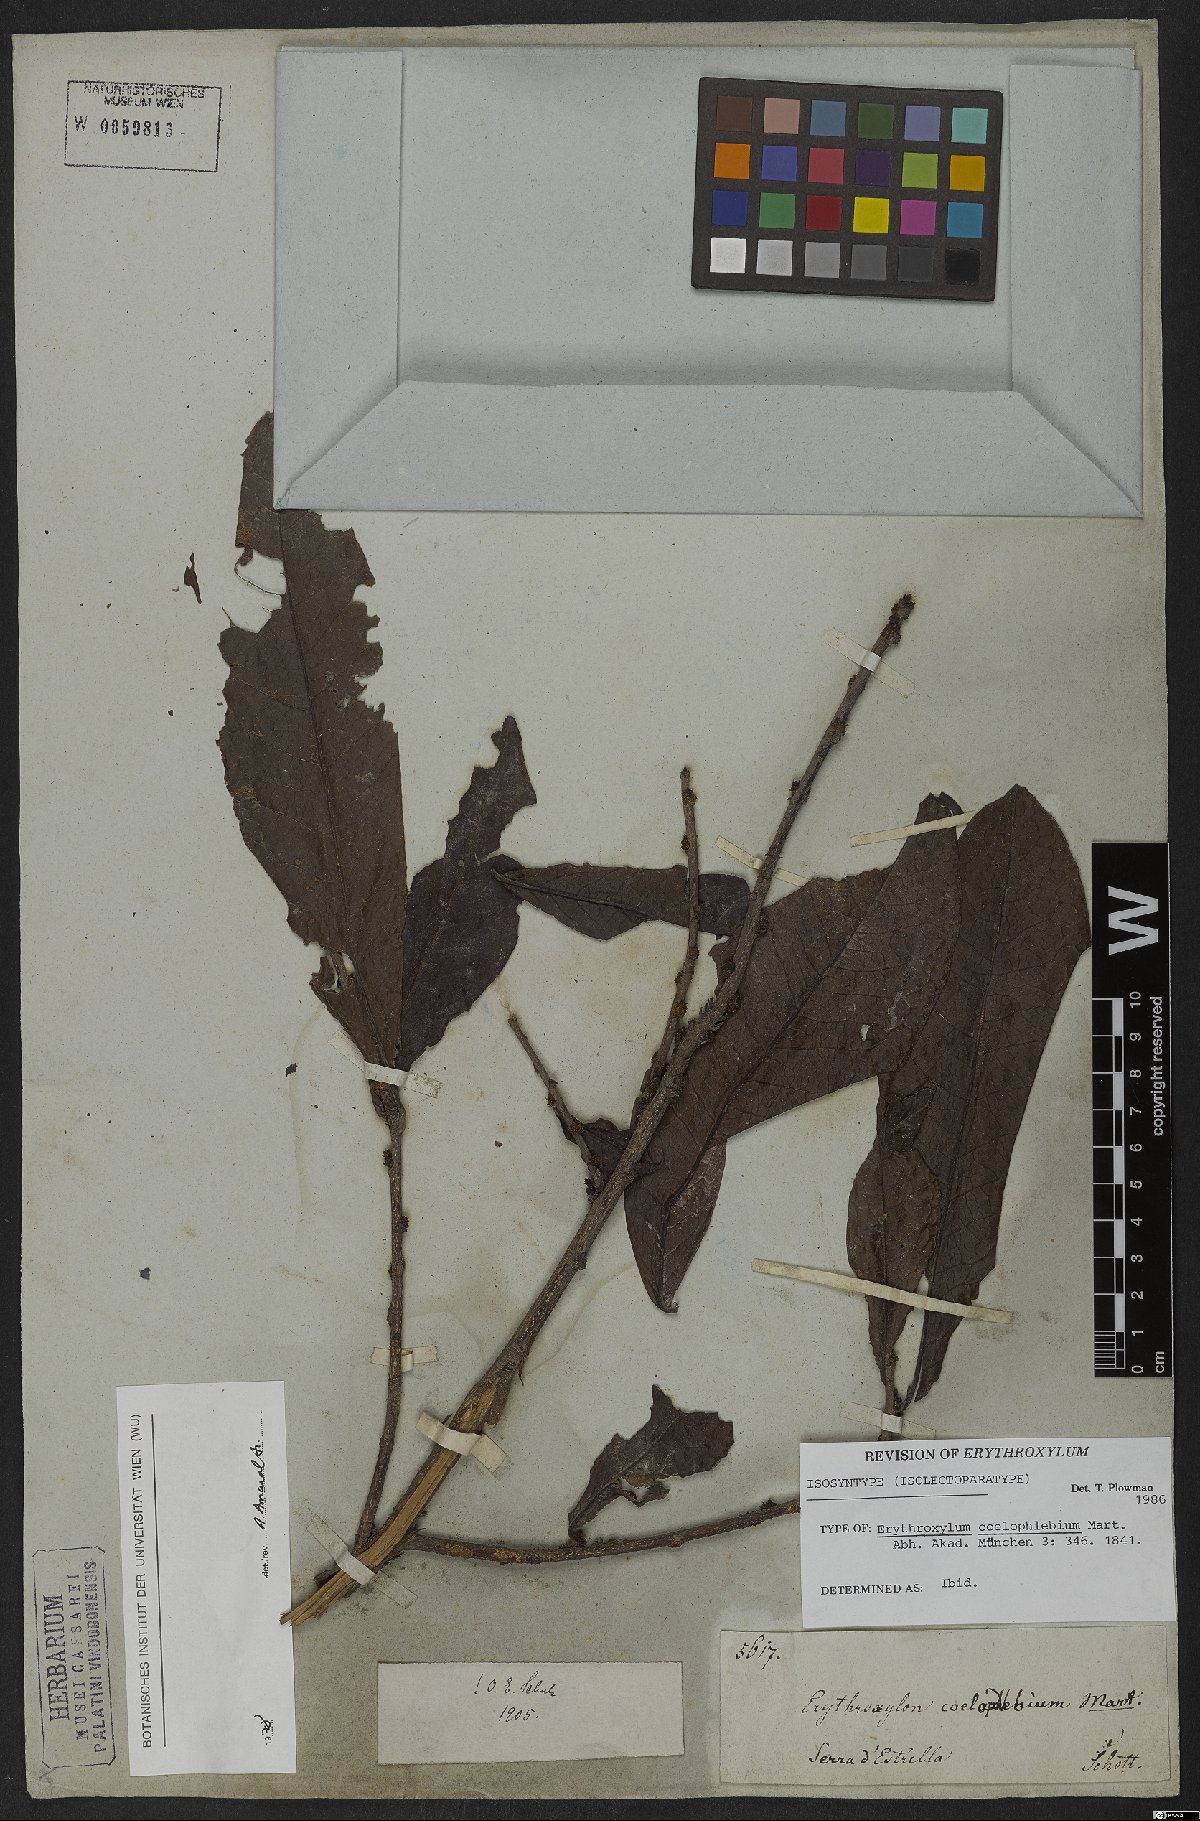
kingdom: Plantae
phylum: Tracheophyta
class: Magnoliopsida
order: Malpighiales
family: Erythroxylaceae
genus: Erythroxylum
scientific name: Erythroxylum coelophlebium
